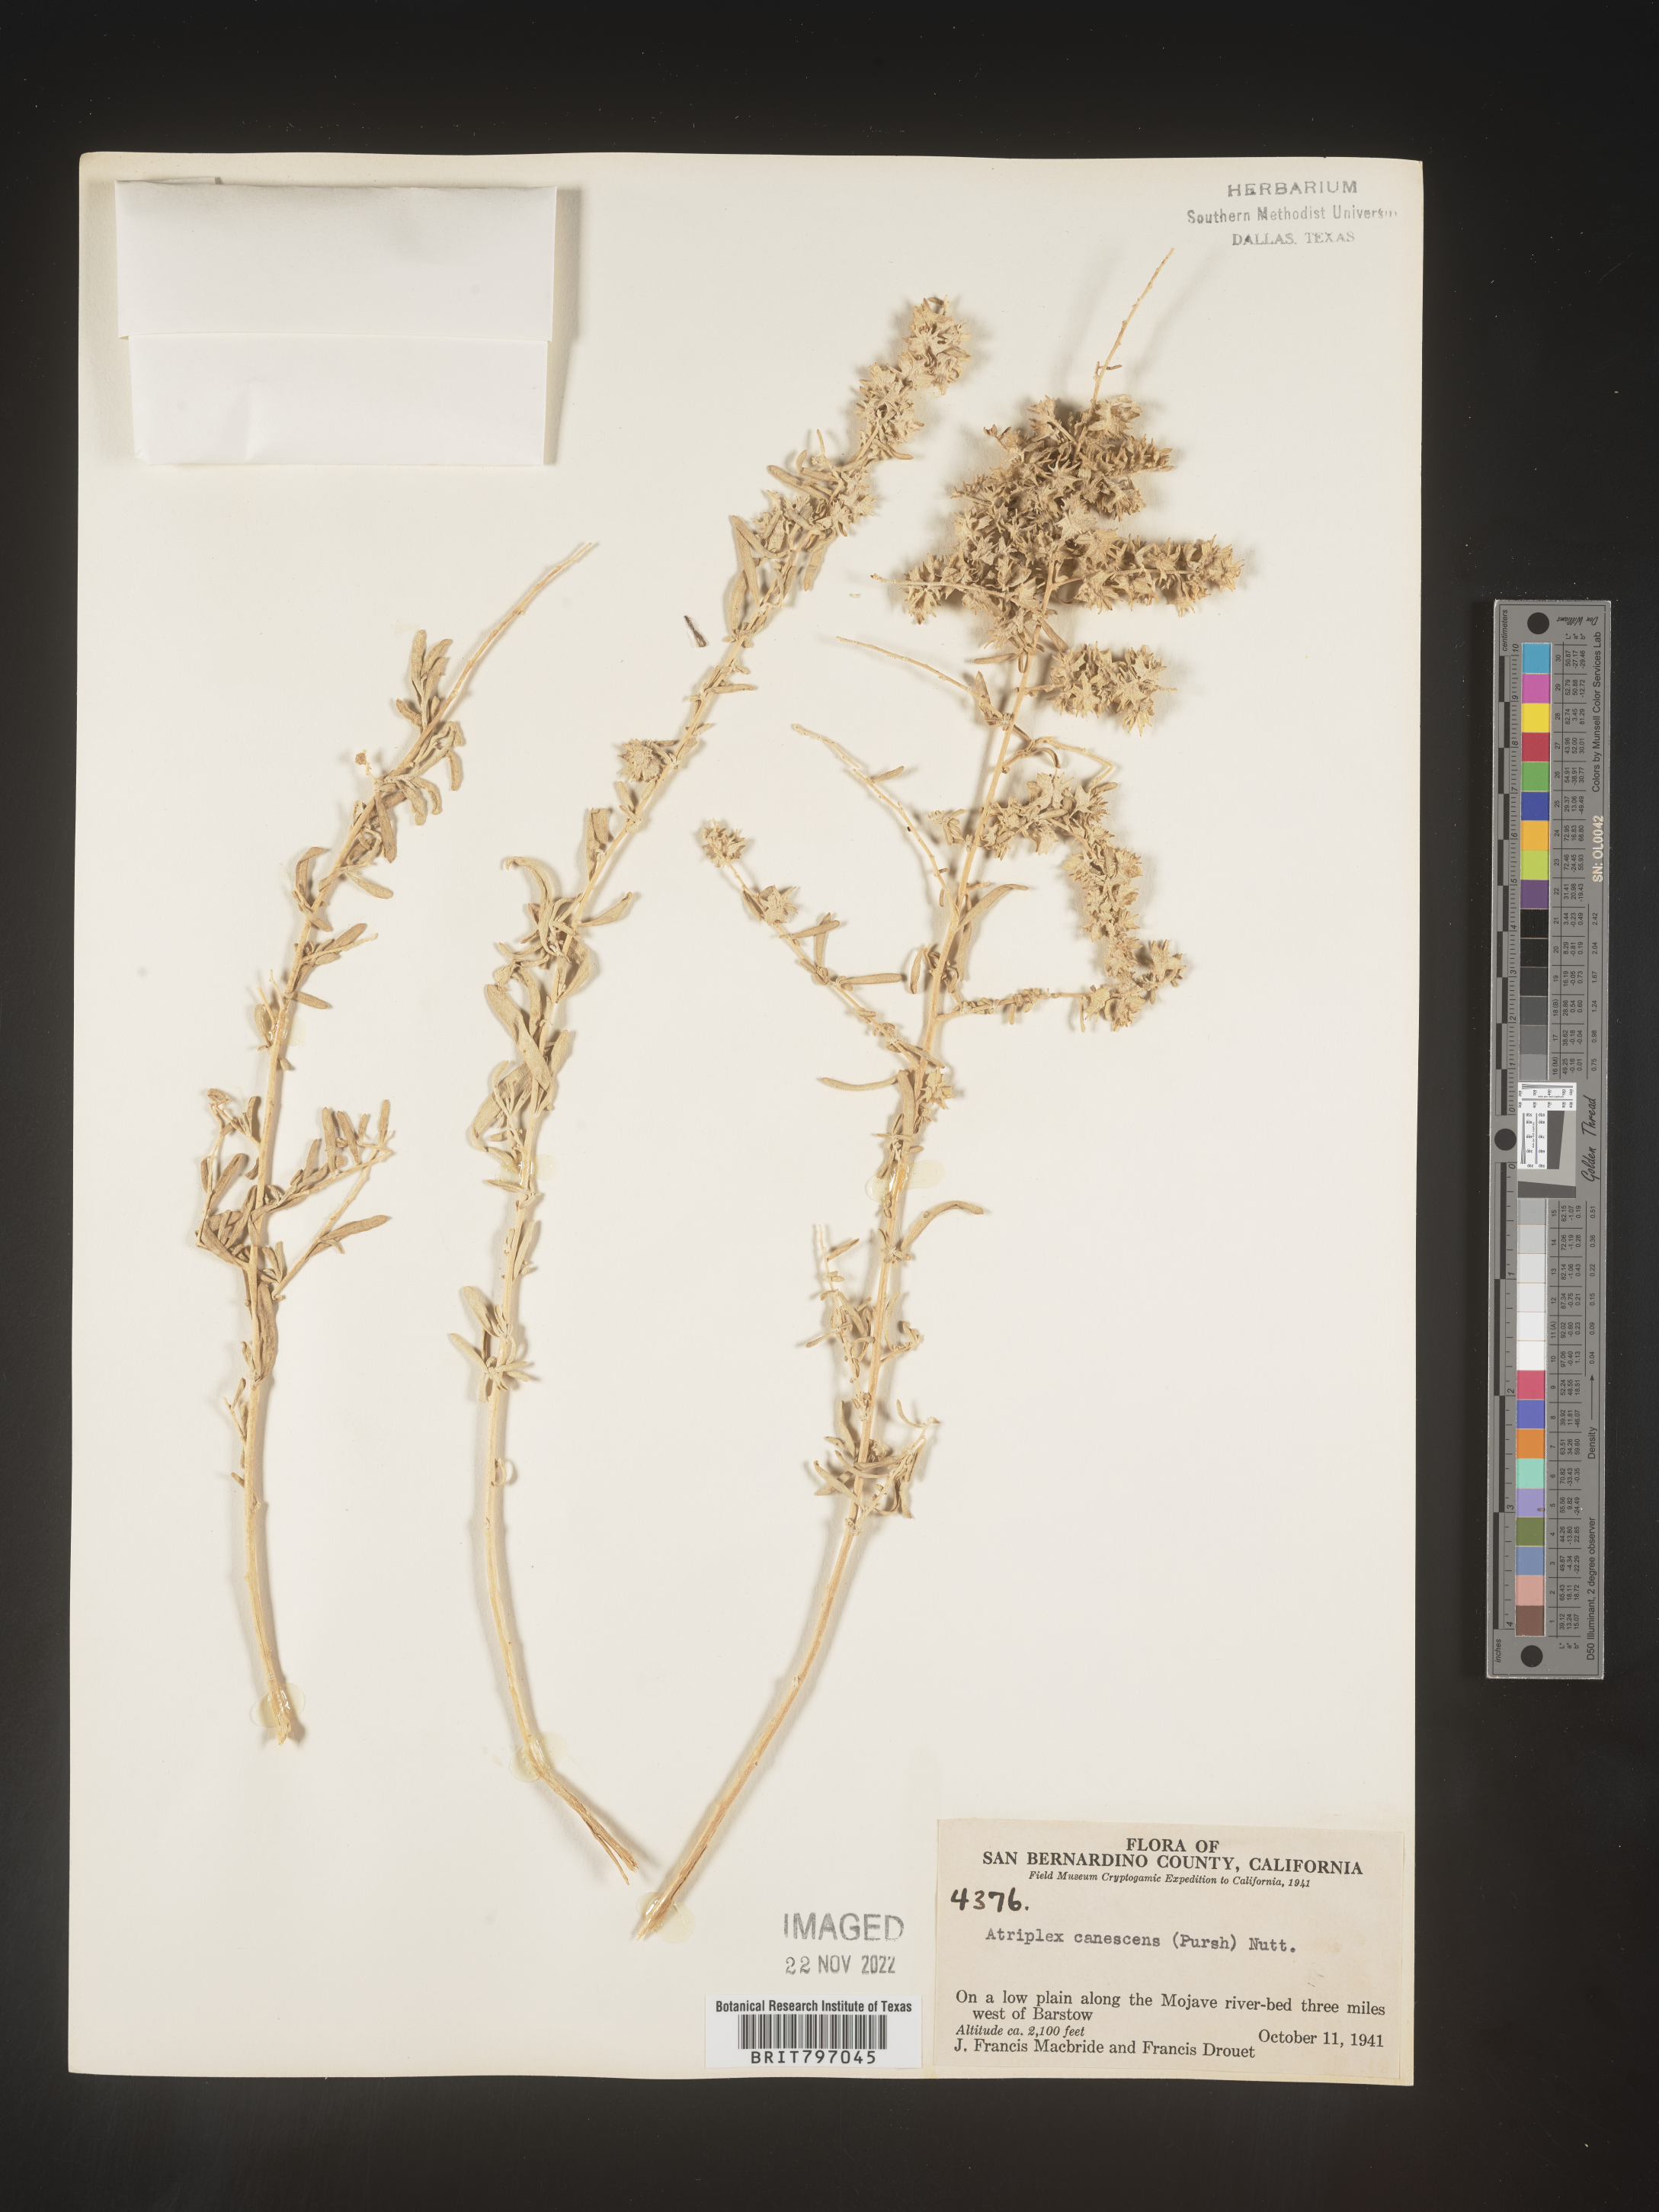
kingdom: Plantae
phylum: Tracheophyta
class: Magnoliopsida
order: Caryophyllales
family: Amaranthaceae
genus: Atriplex
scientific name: Atriplex canescens
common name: Four-wing saltbush
